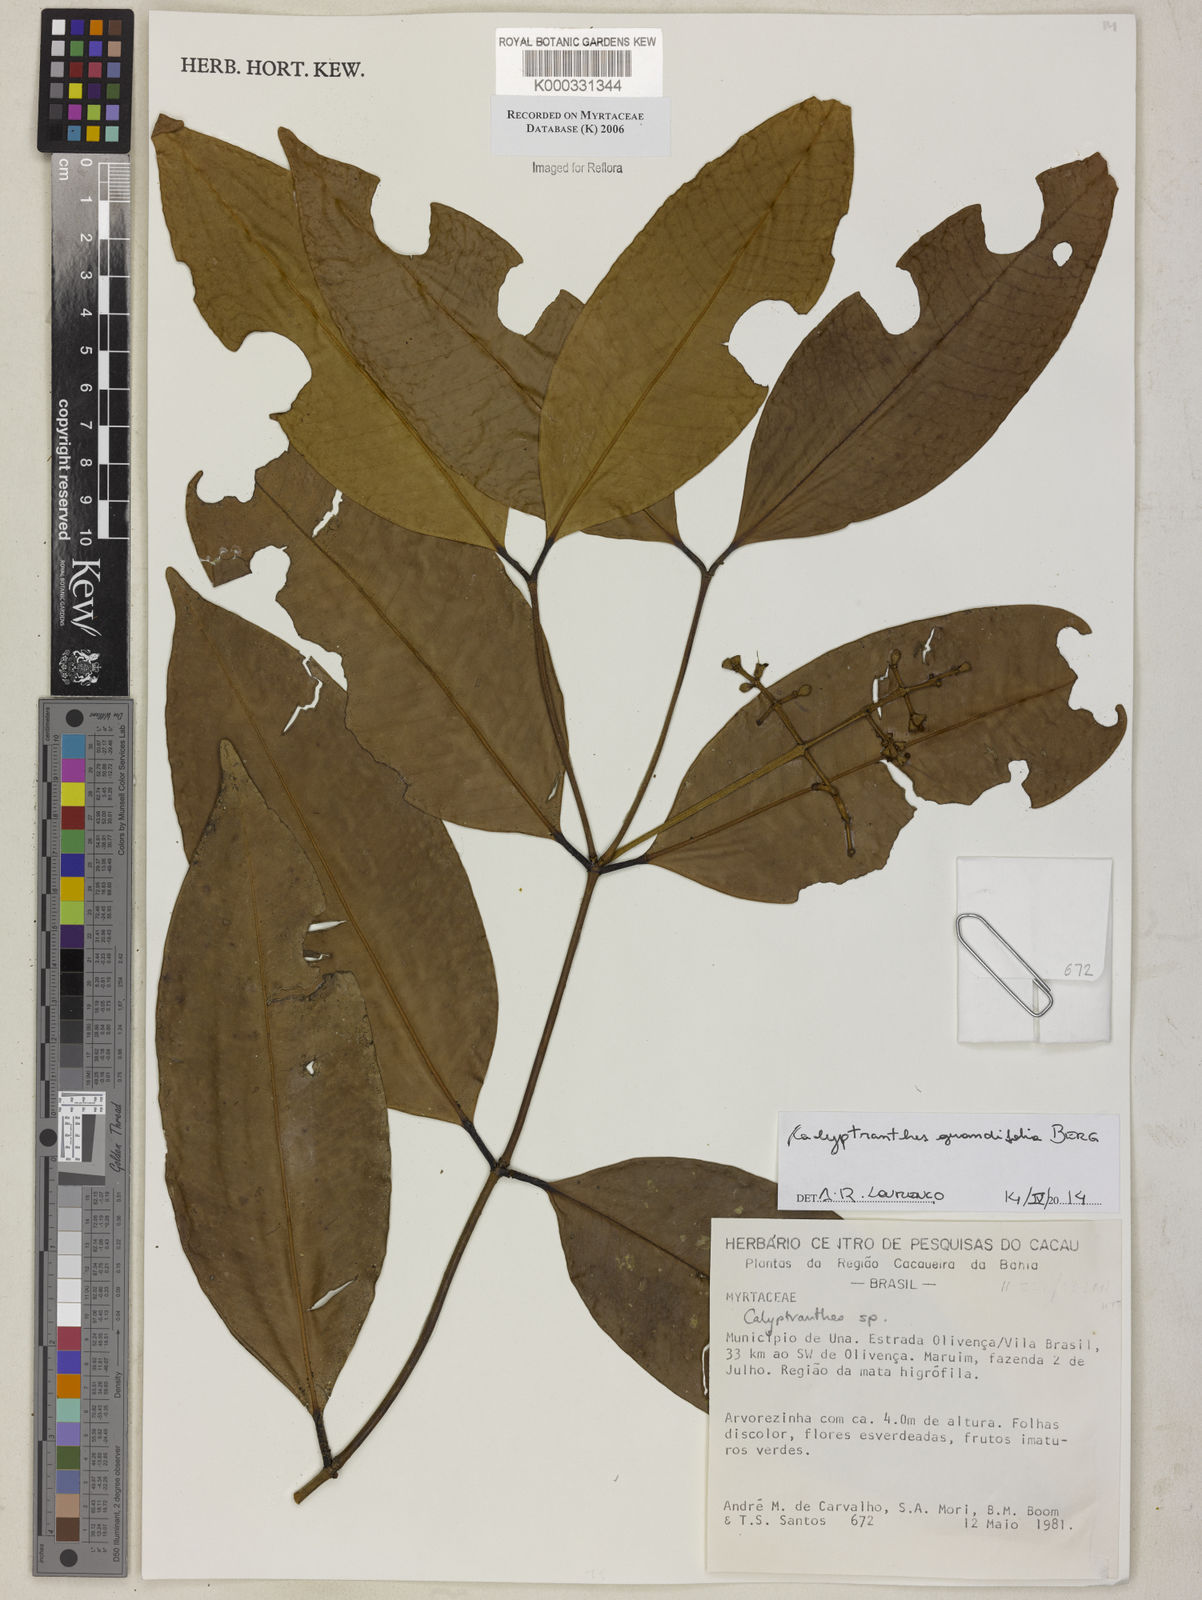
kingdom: Plantae
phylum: Tracheophyta
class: Magnoliopsida
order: Myrtales
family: Myrtaceae
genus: Calyptranthes
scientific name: Calyptranthes
